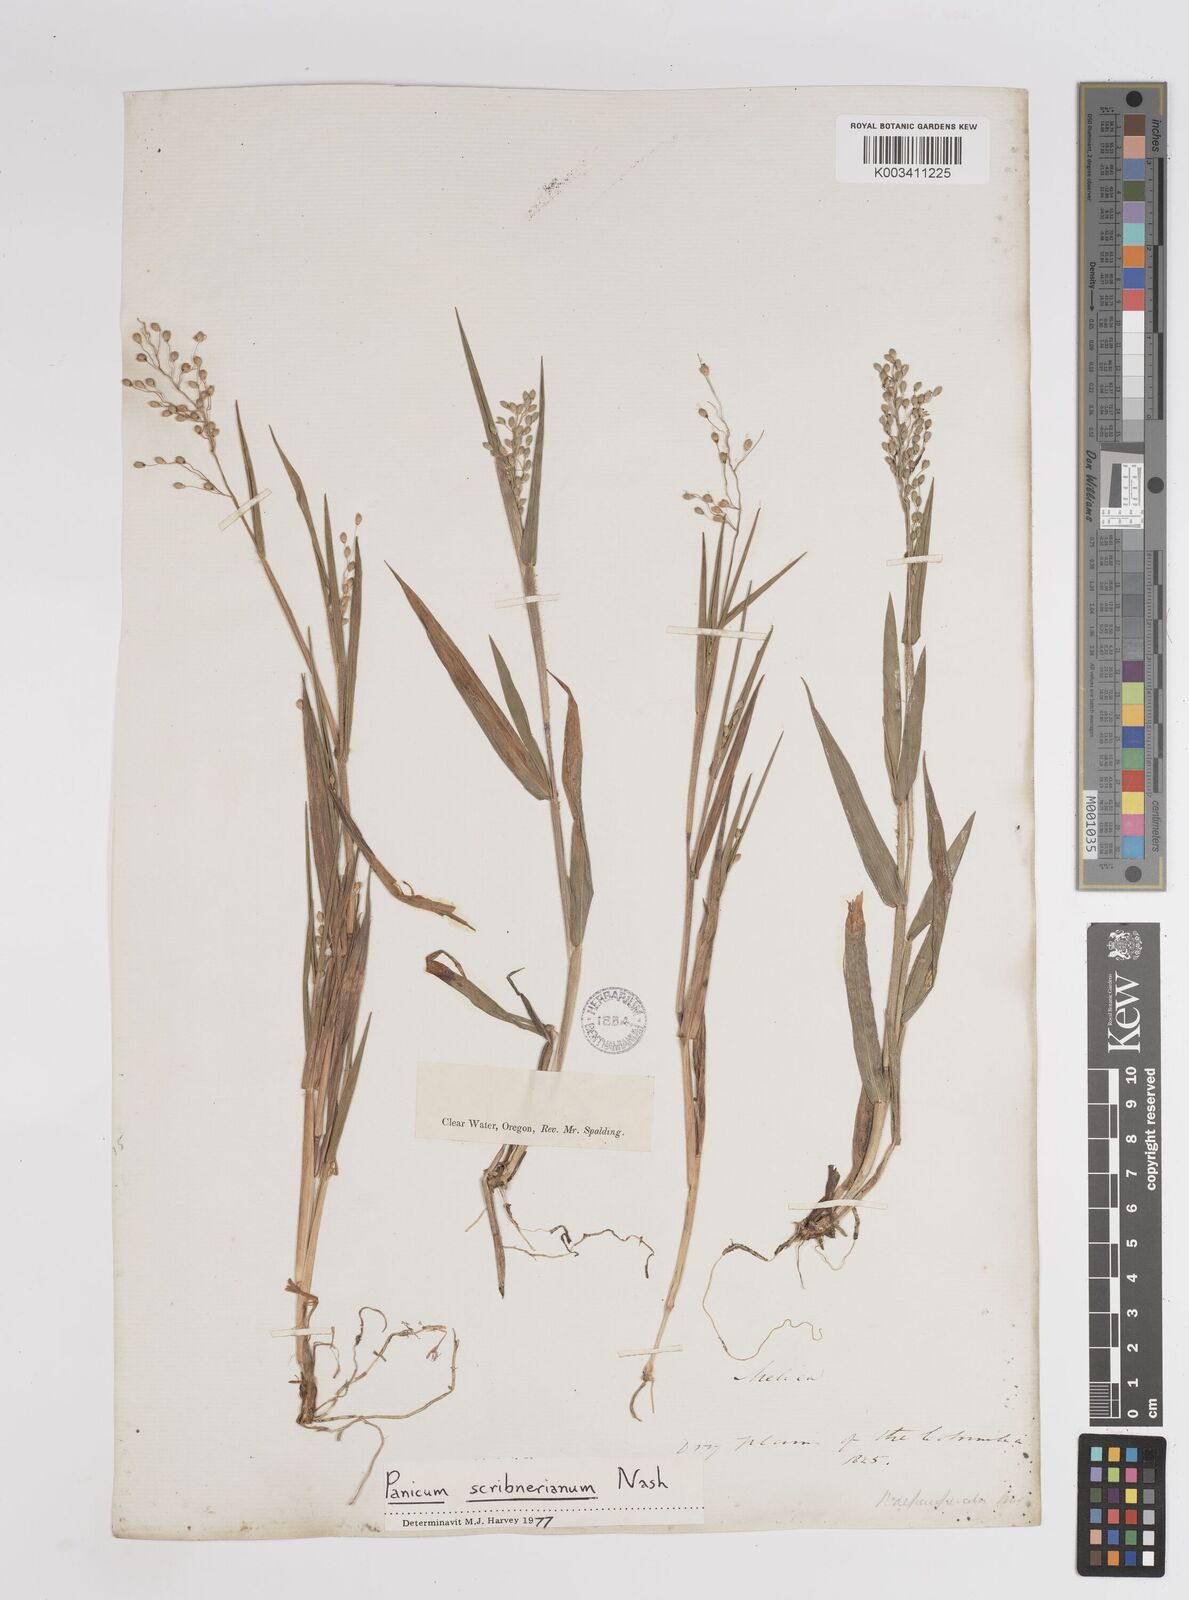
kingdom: Plantae
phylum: Tracheophyta
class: Liliopsida
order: Poales
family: Poaceae
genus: Dichanthelium
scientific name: Dichanthelium scribnerianum
